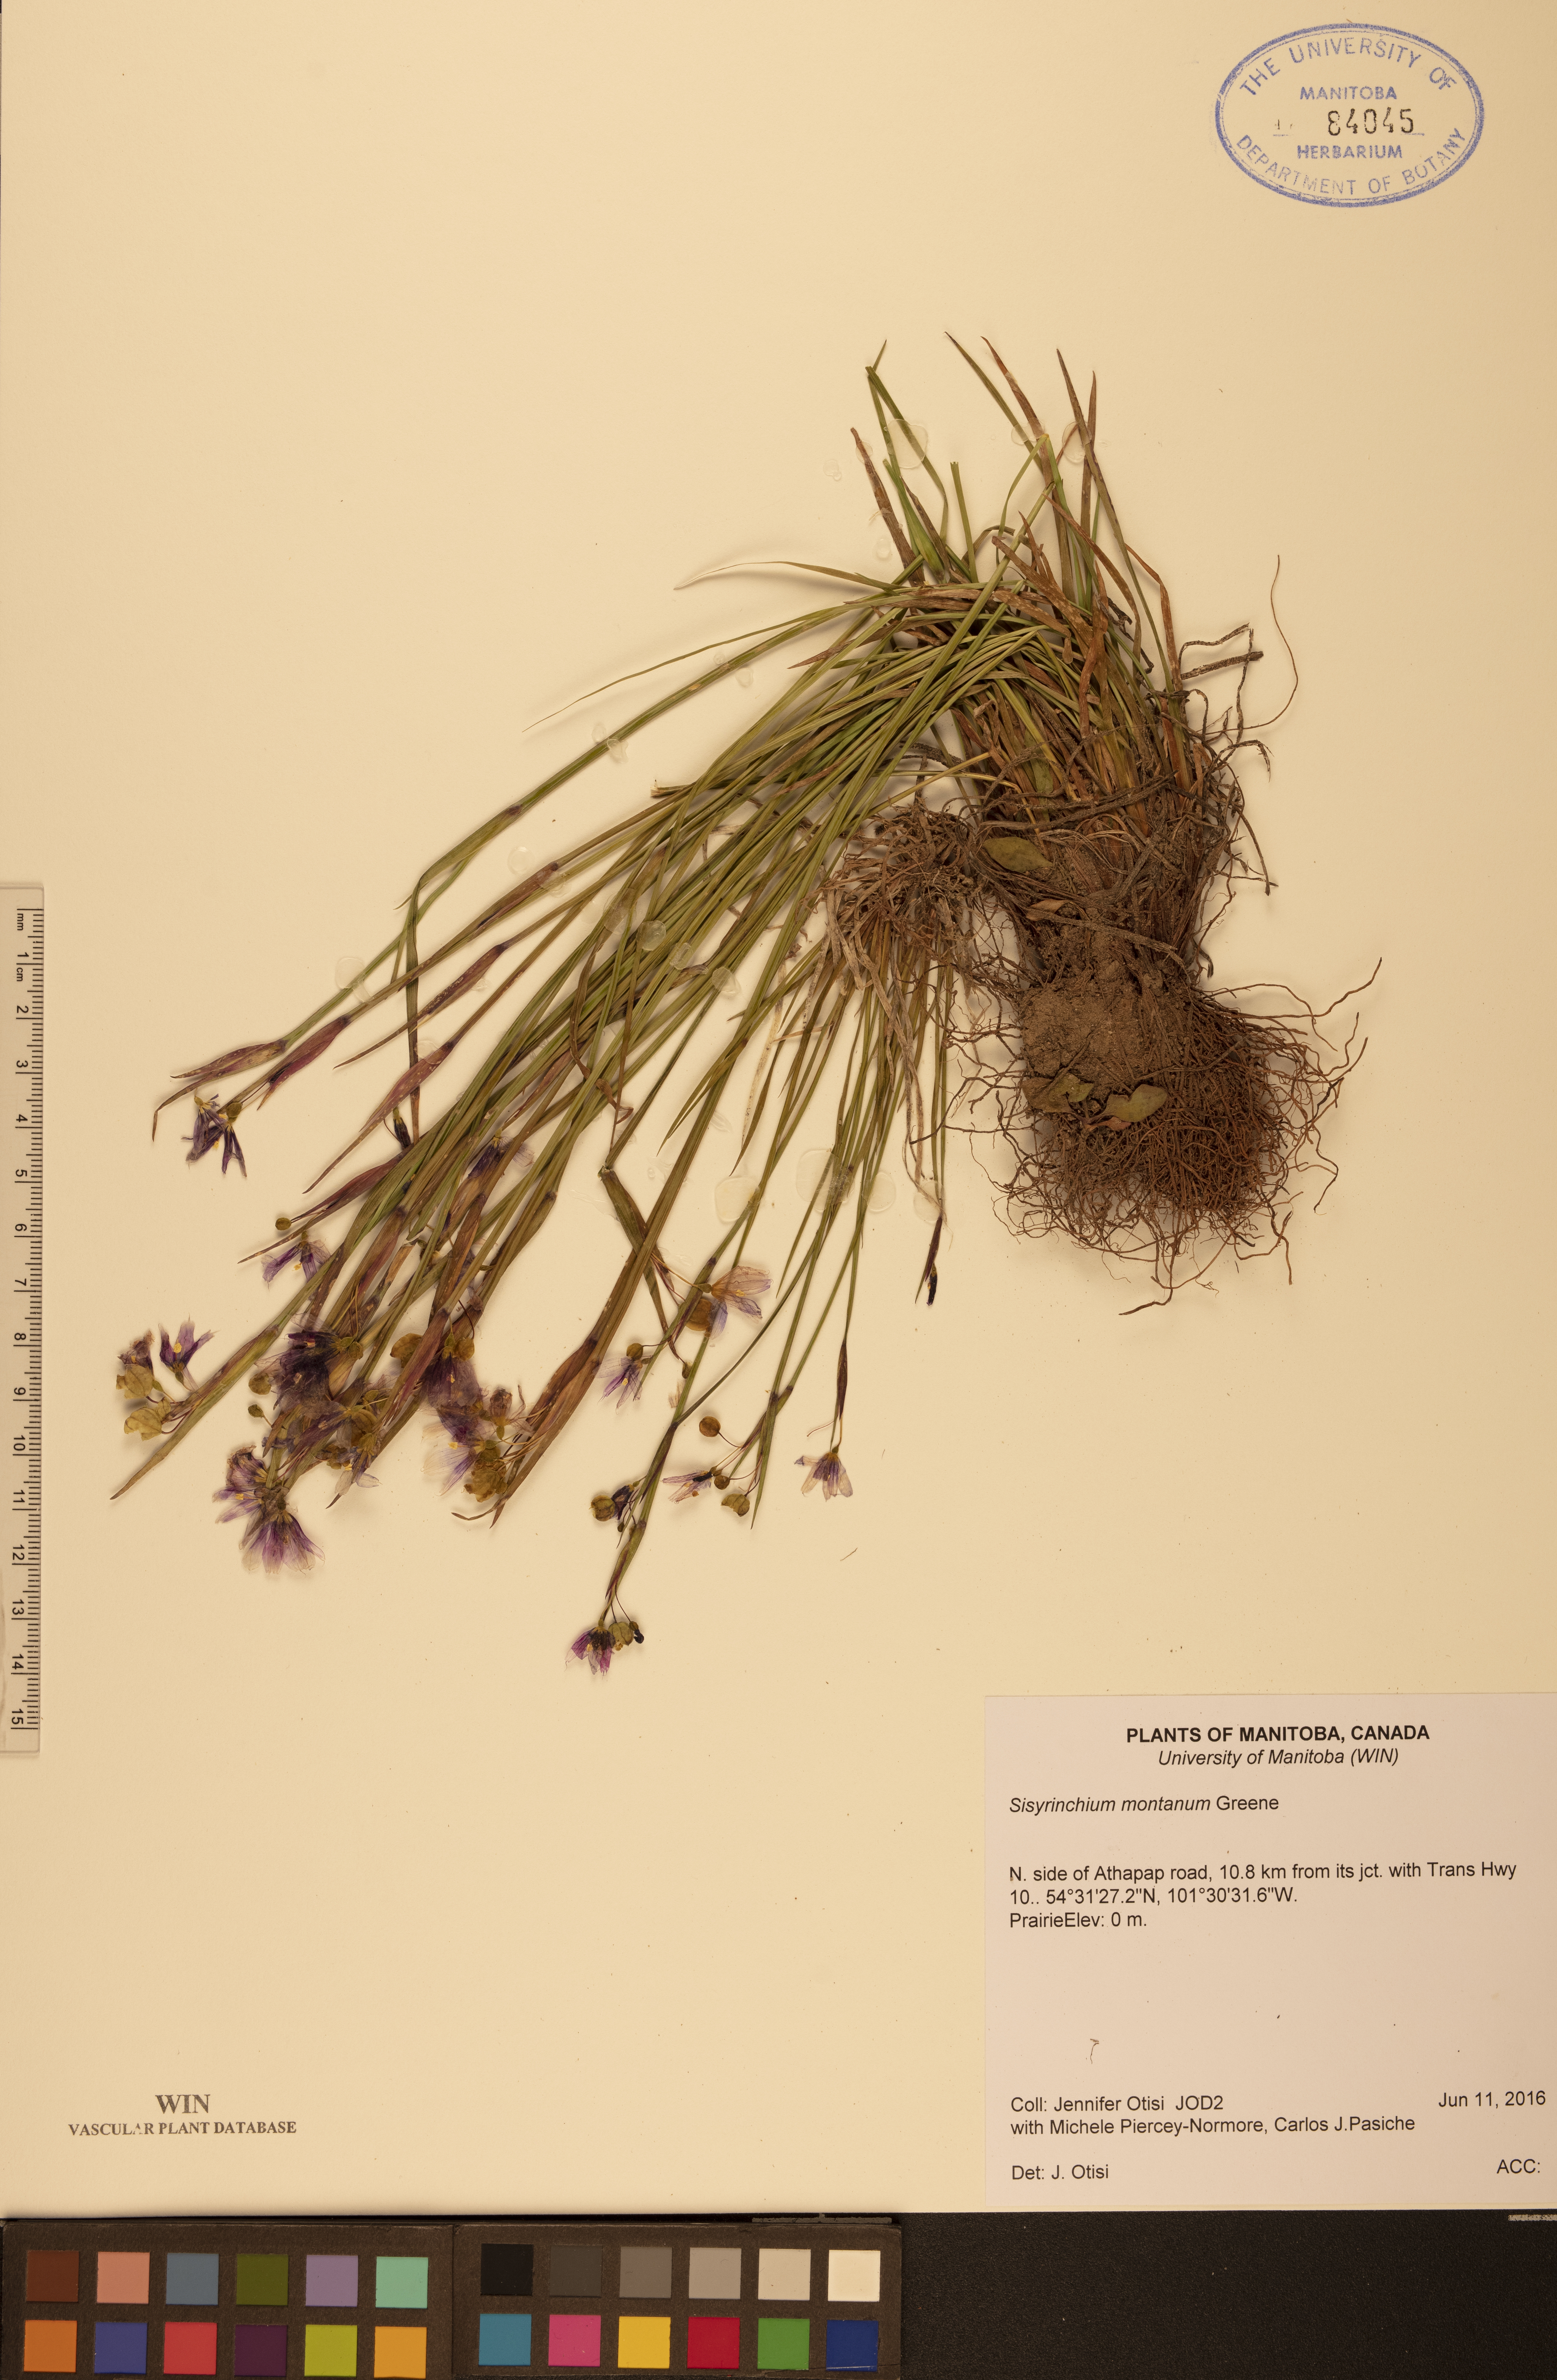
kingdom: Plantae
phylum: Tracheophyta
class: Liliopsida
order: Asparagales
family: Iridaceae
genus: Sisyrinchium
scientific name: Sisyrinchium montanum
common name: American blue-eyed-grass
